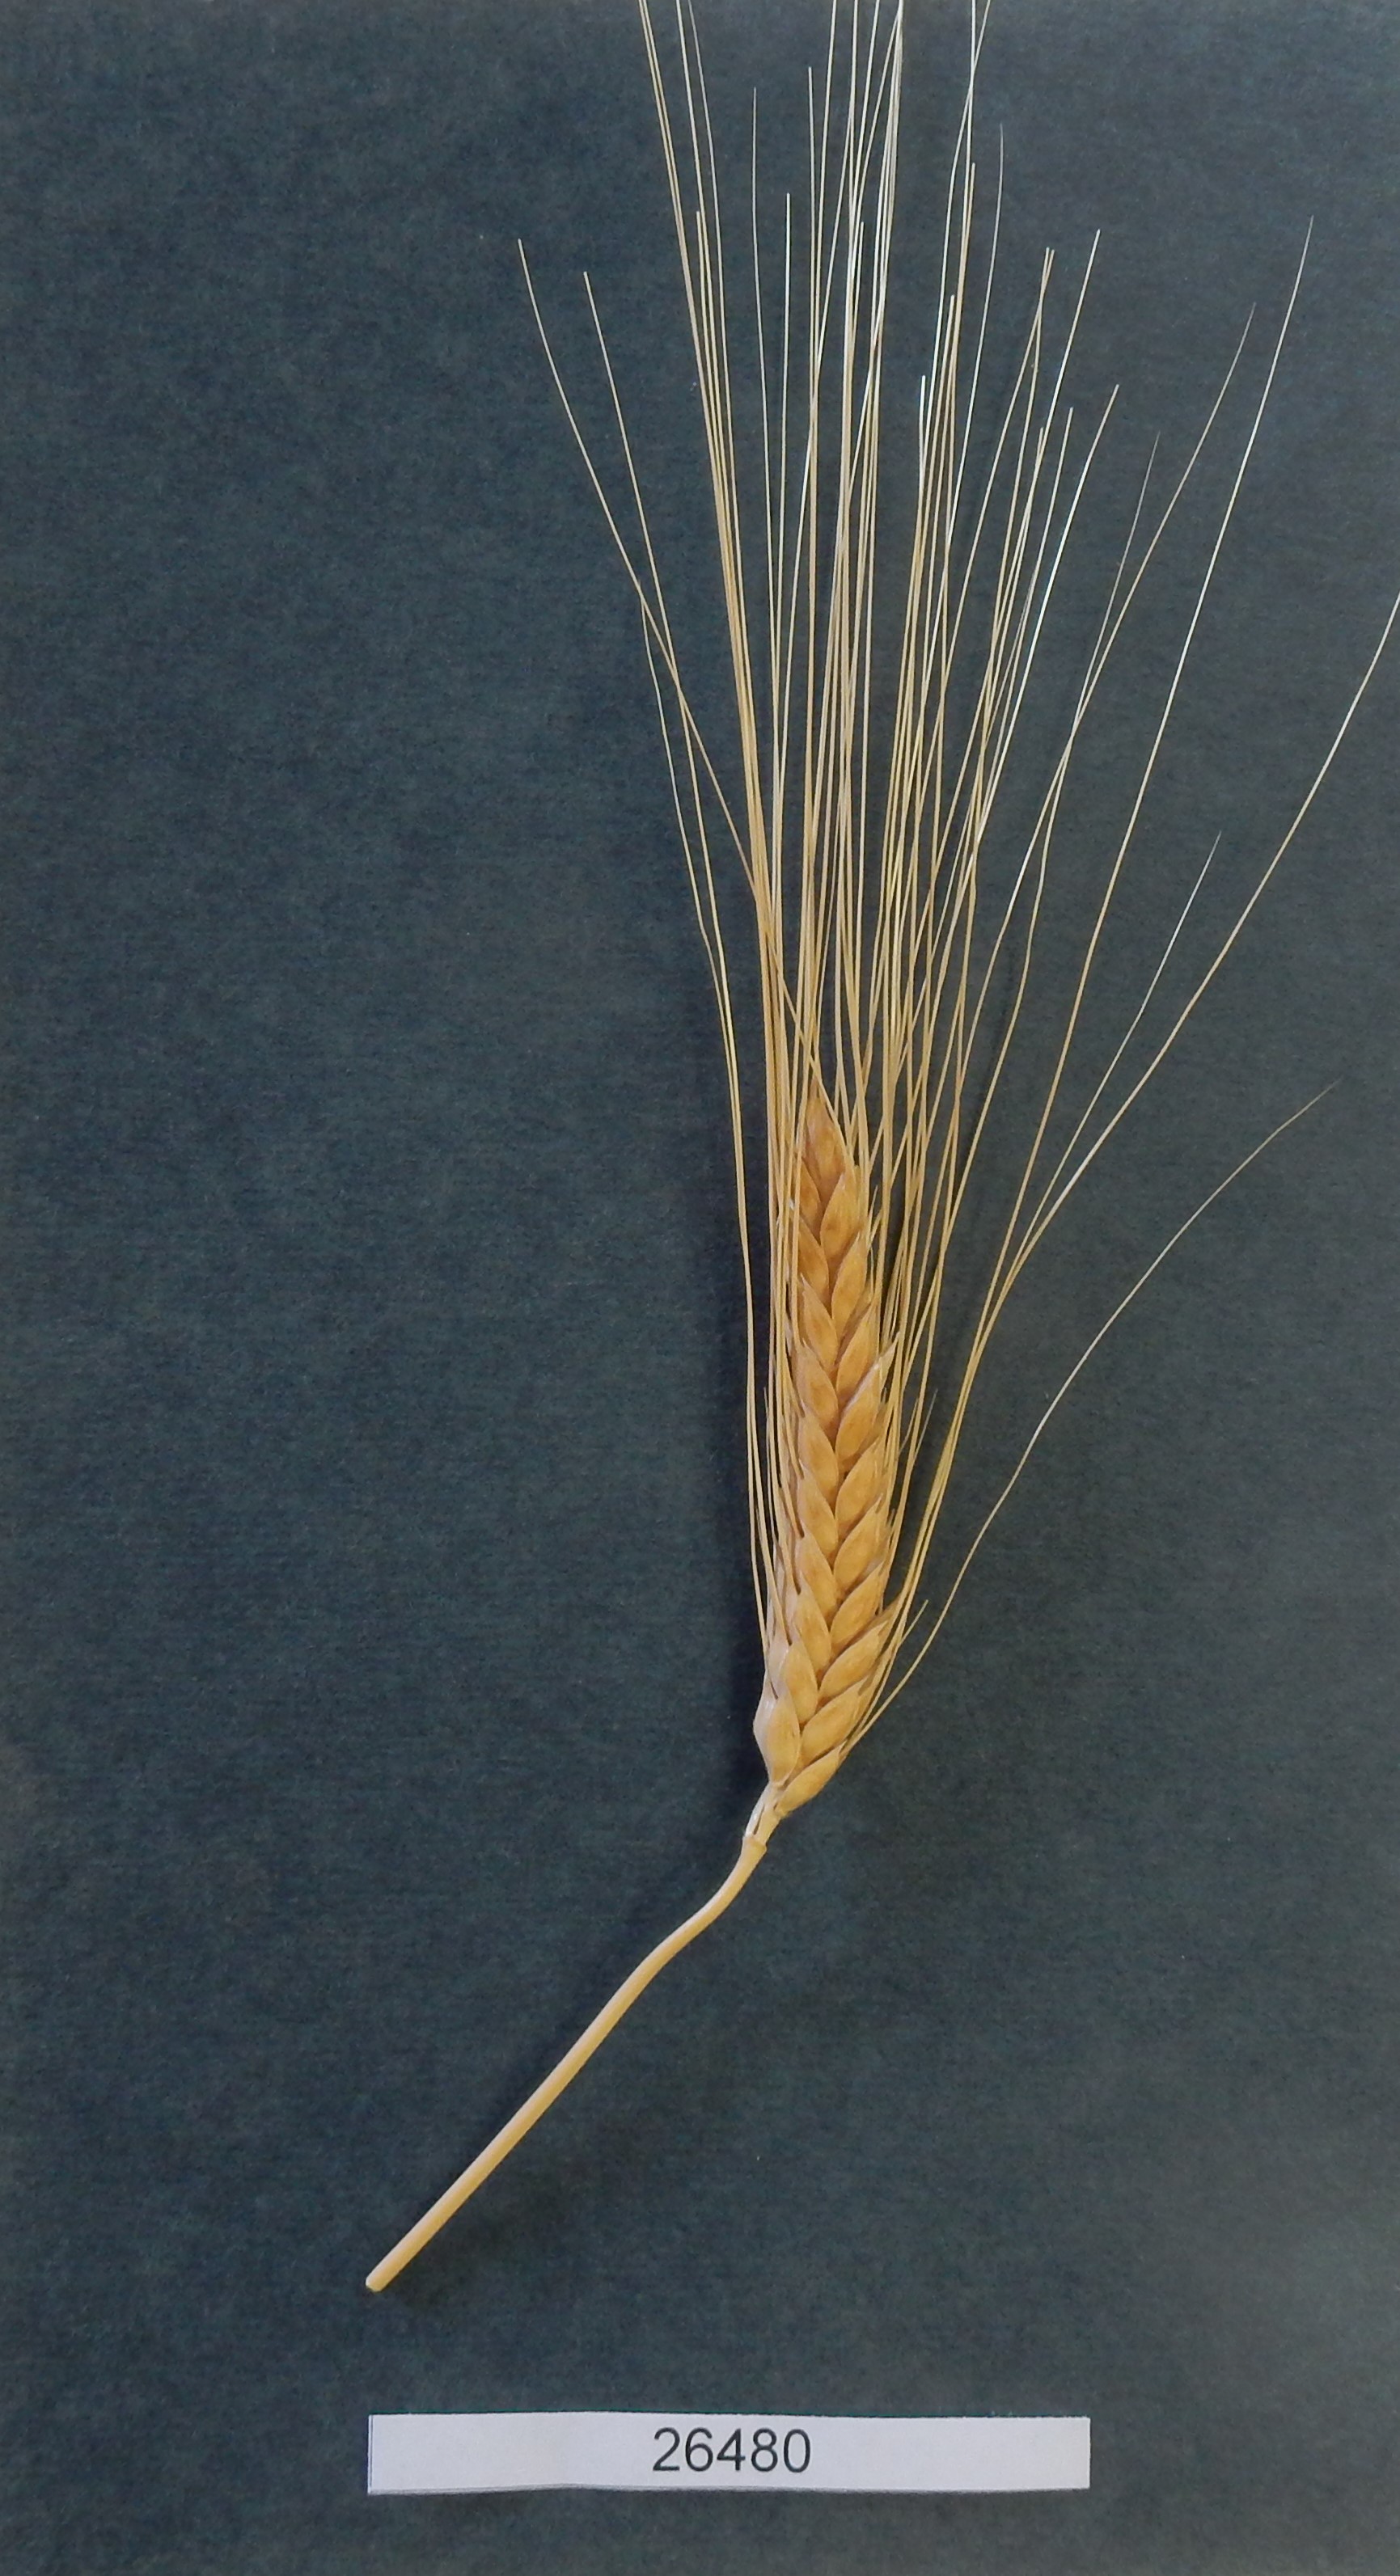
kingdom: Plantae
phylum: Tracheophyta
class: Liliopsida
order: Poales
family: Poaceae
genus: Triticum
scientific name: Triticum turgidum
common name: Wheat
